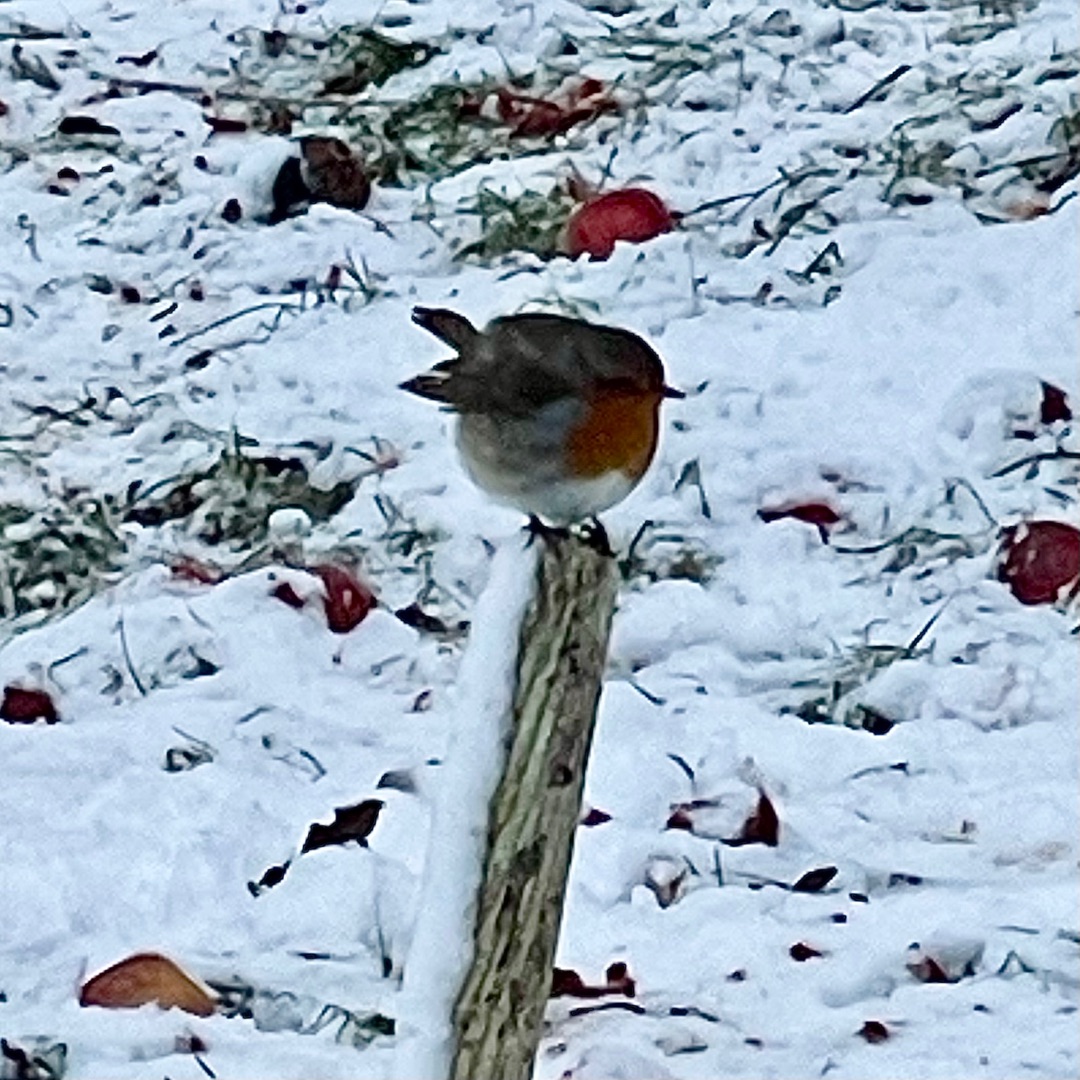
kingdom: Animalia
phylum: Chordata
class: Aves
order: Passeriformes
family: Muscicapidae
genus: Erithacus
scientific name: Erithacus rubecula
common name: Rødhals/rødkælk
